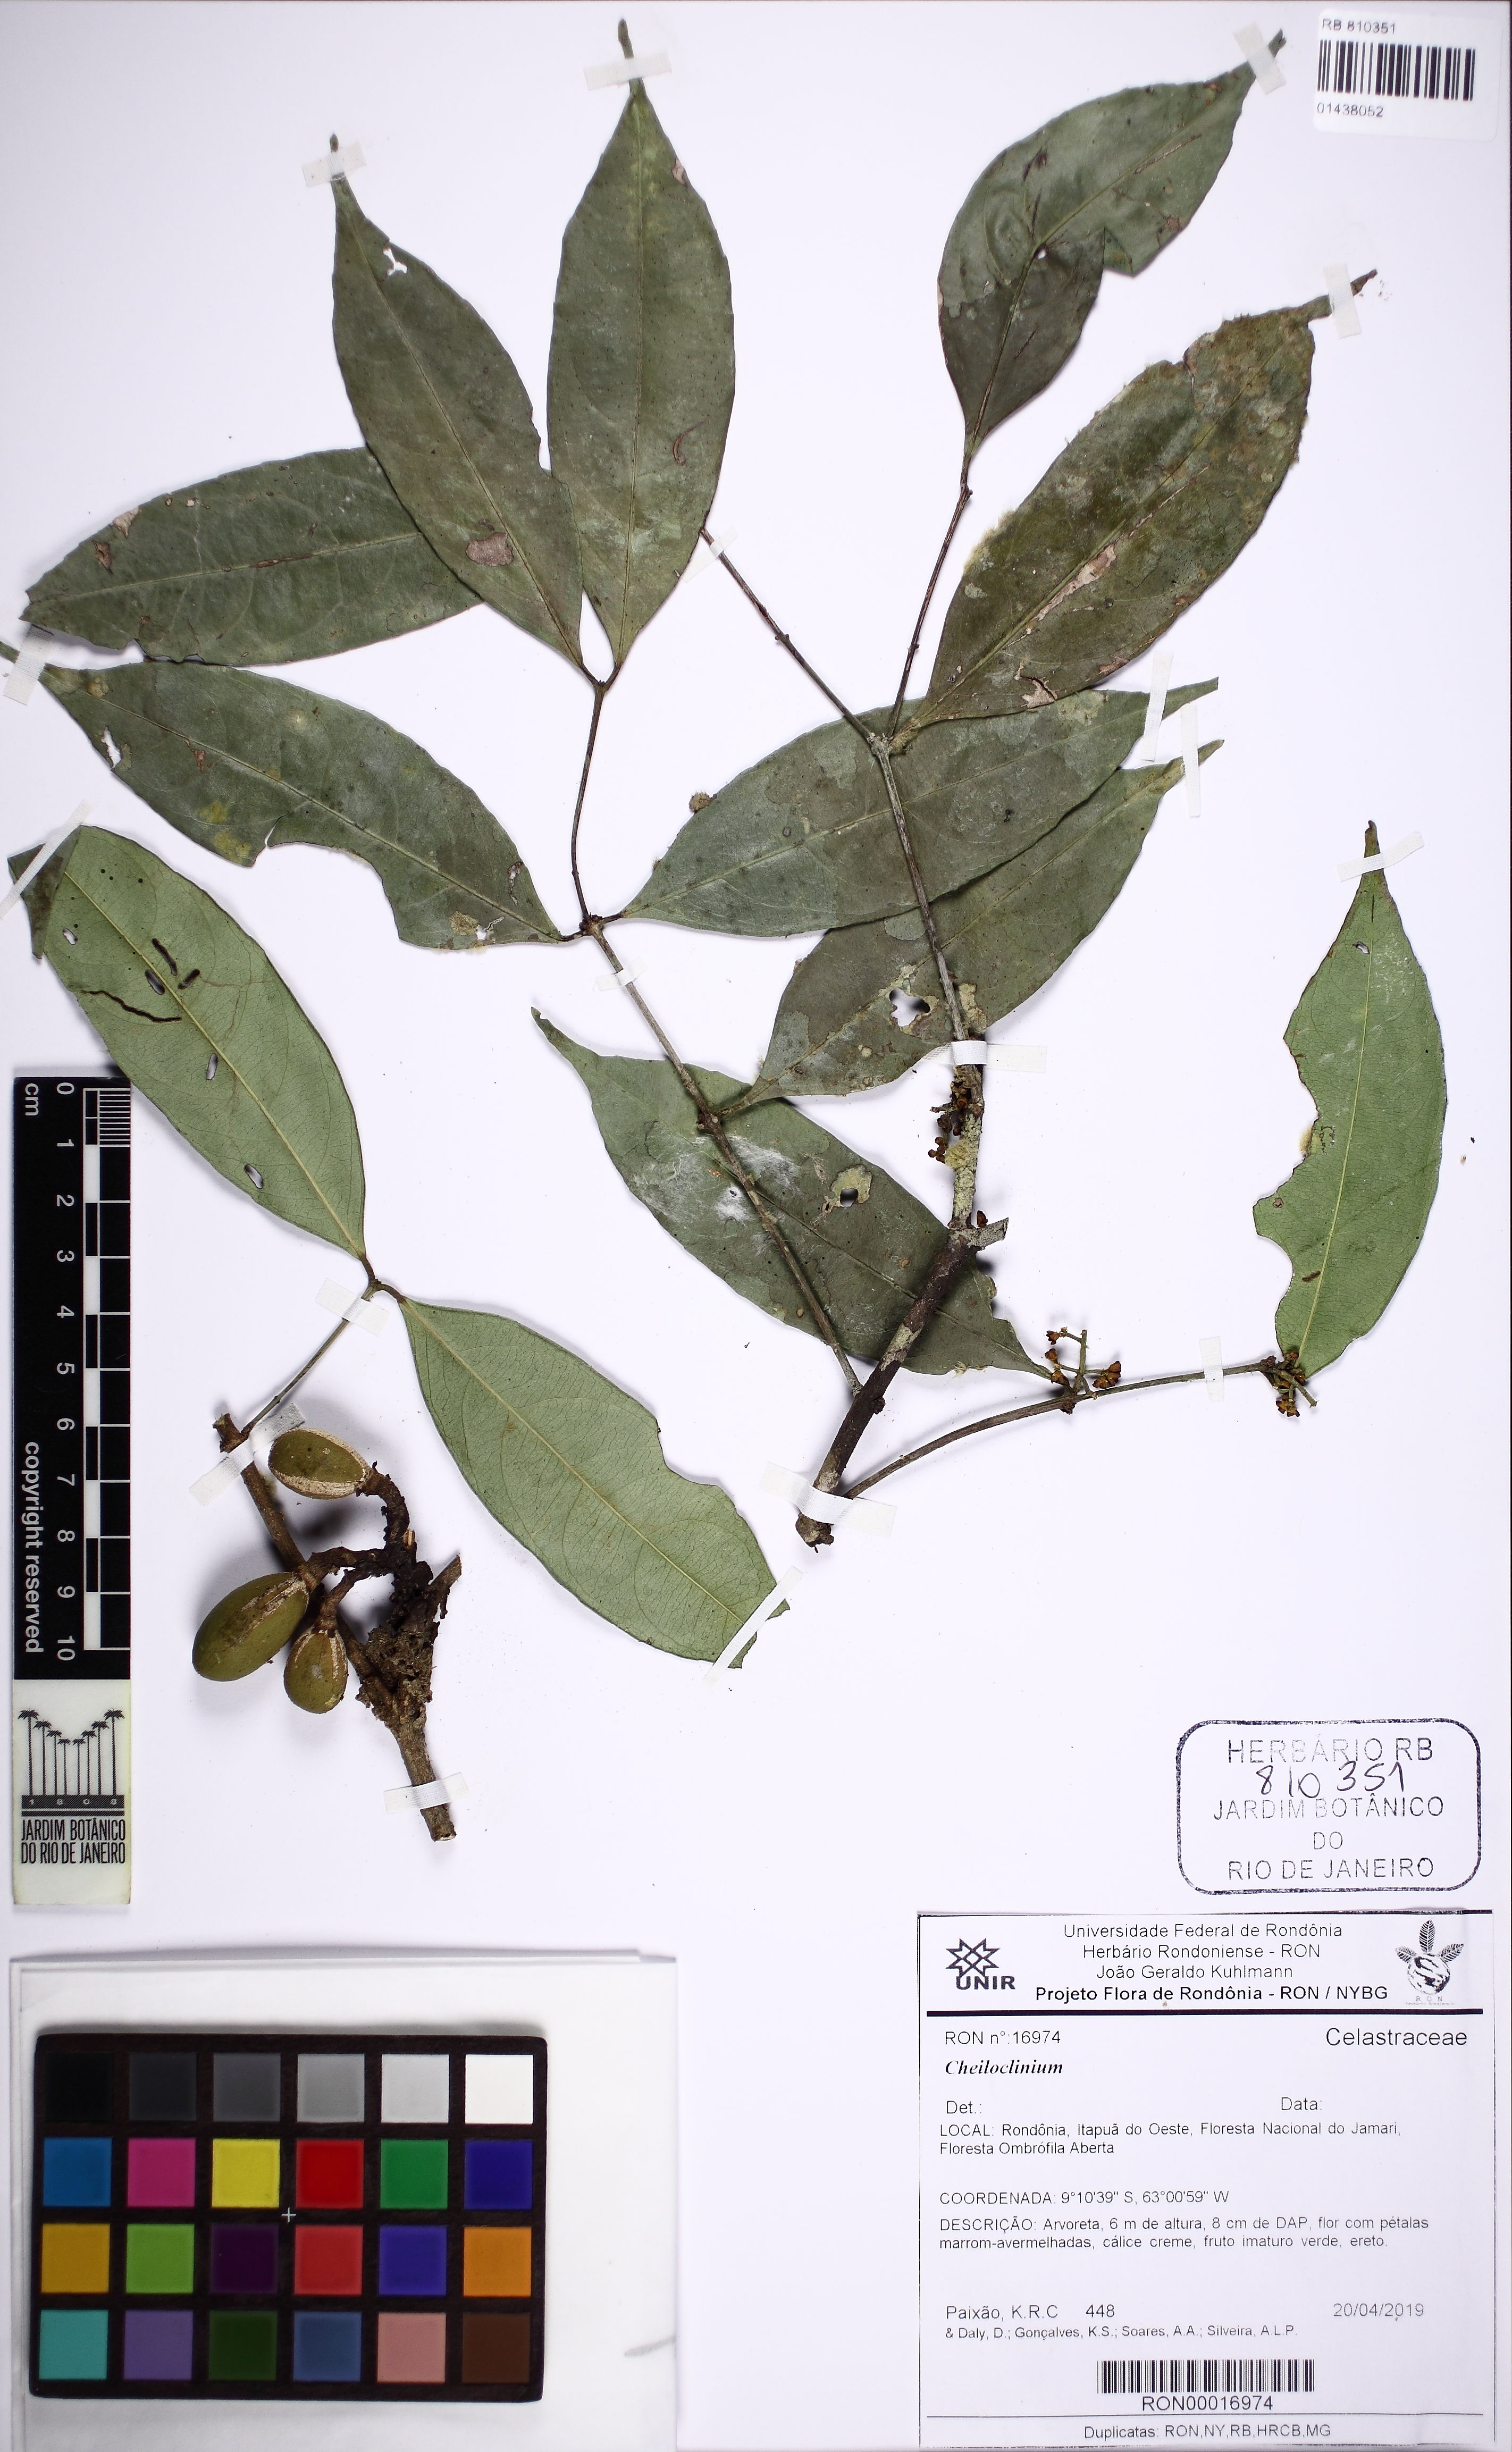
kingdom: Plantae
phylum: Tracheophyta
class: Magnoliopsida
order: Celastrales
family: Celastraceae
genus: Cheiloclinium
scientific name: Cheiloclinium
